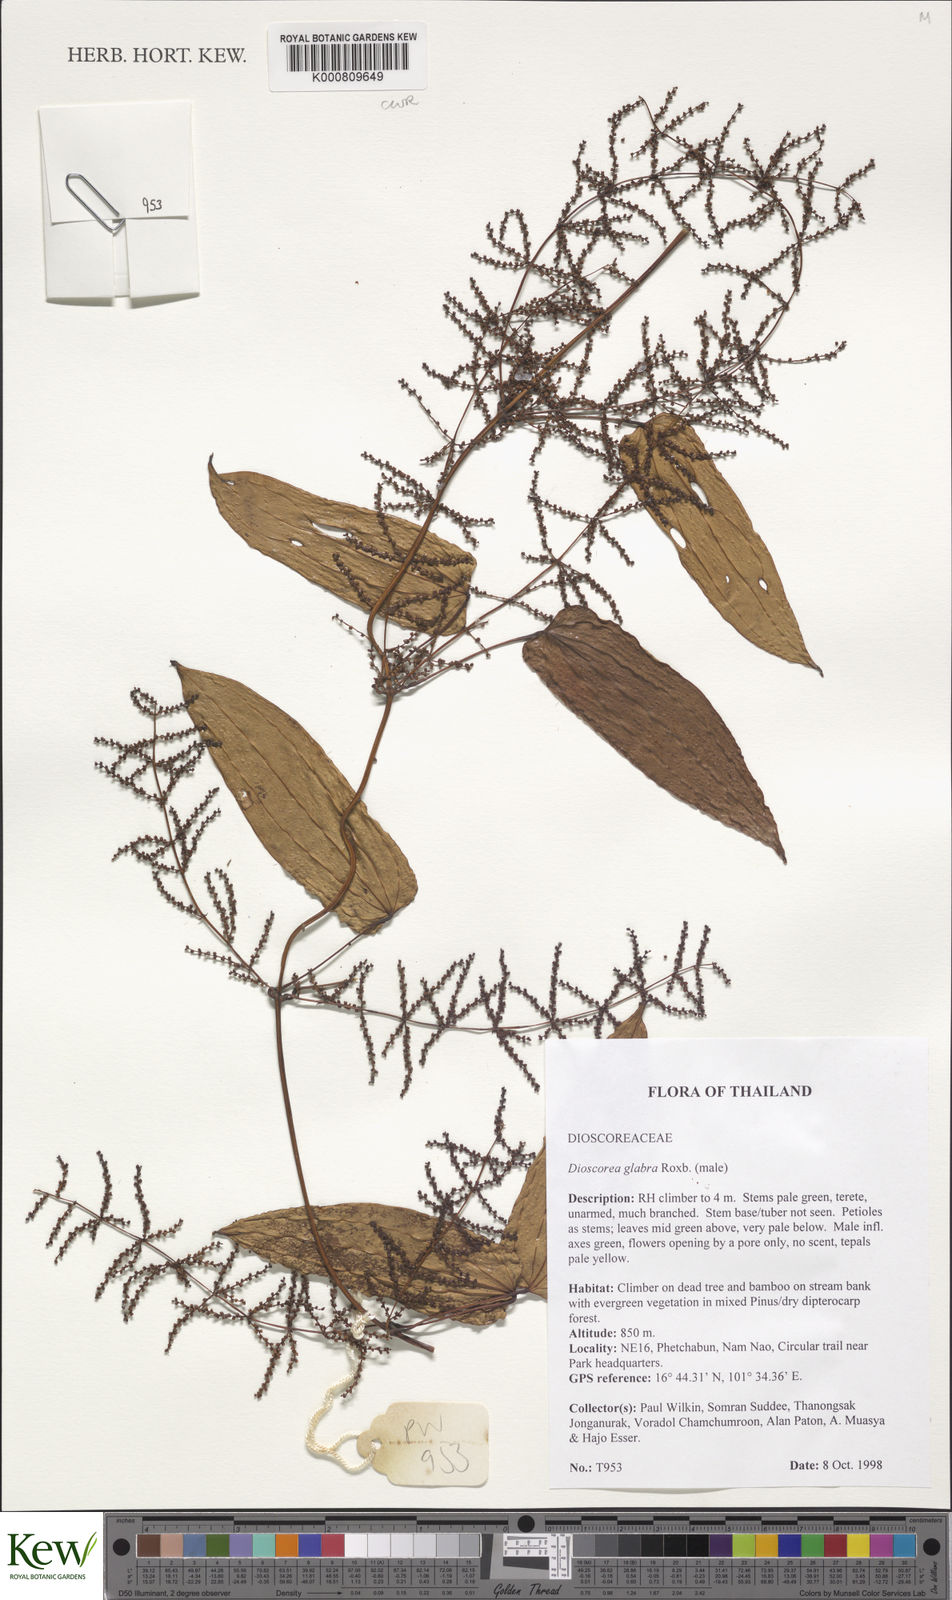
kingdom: Plantae
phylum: Tracheophyta
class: Liliopsida
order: Dioscoreales
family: Dioscoreaceae
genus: Dioscorea
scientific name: Dioscorea glabra
